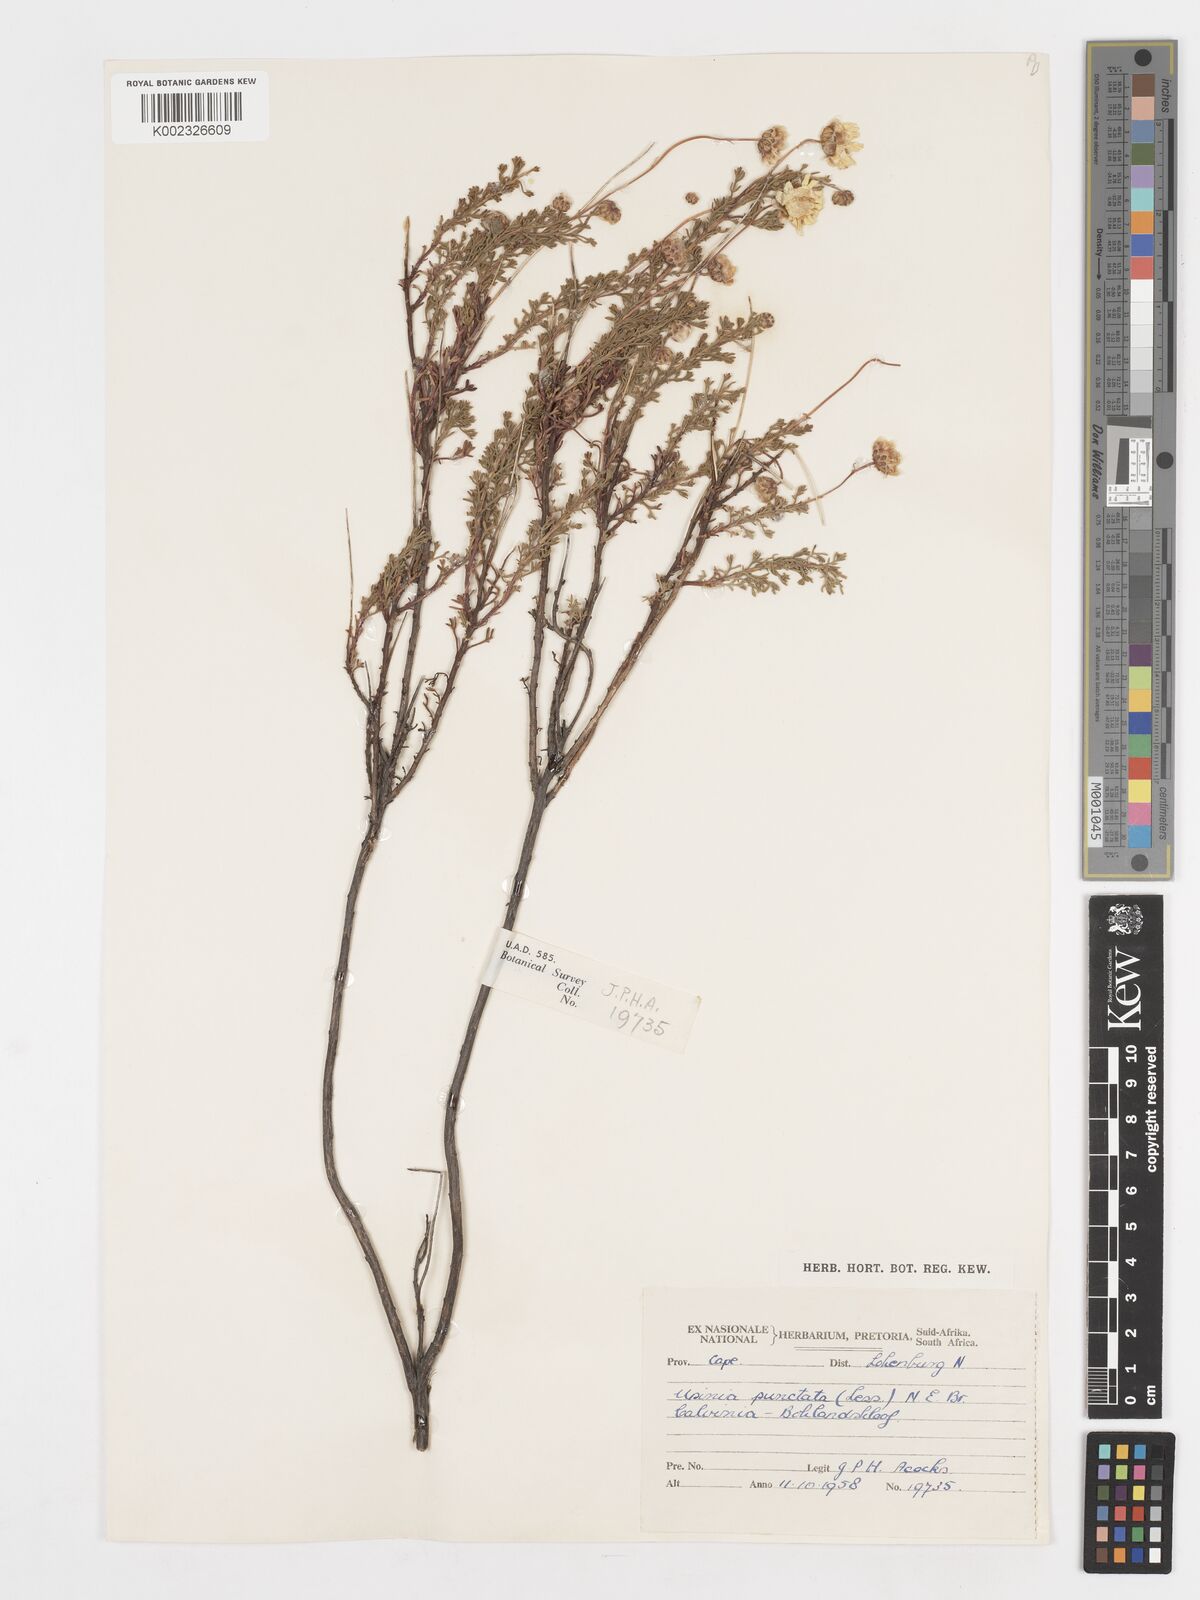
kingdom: Plantae
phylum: Tracheophyta
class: Magnoliopsida
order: Asterales
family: Asteraceae
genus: Ursinia
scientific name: Ursinia punctata
